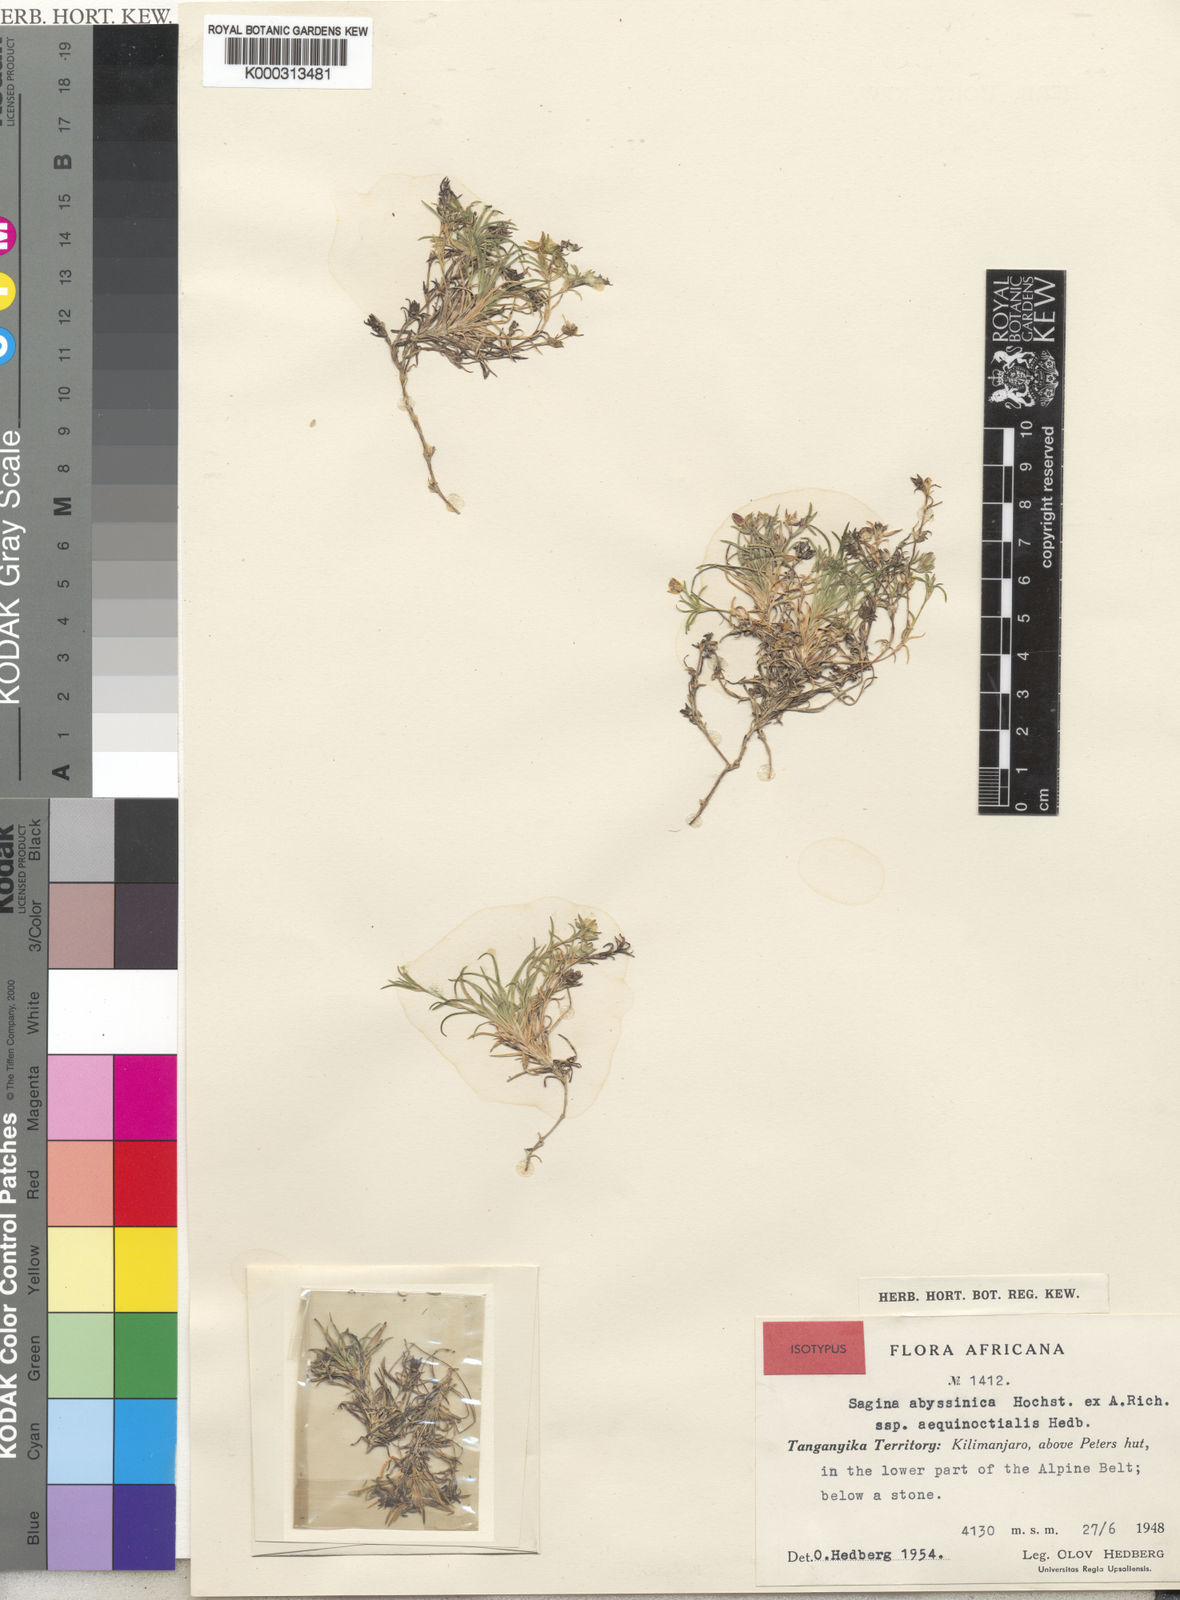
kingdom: Plantae
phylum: Tracheophyta
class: Magnoliopsida
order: Caryophyllales
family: Caryophyllaceae
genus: Sagina
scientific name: Sagina abyssinica
